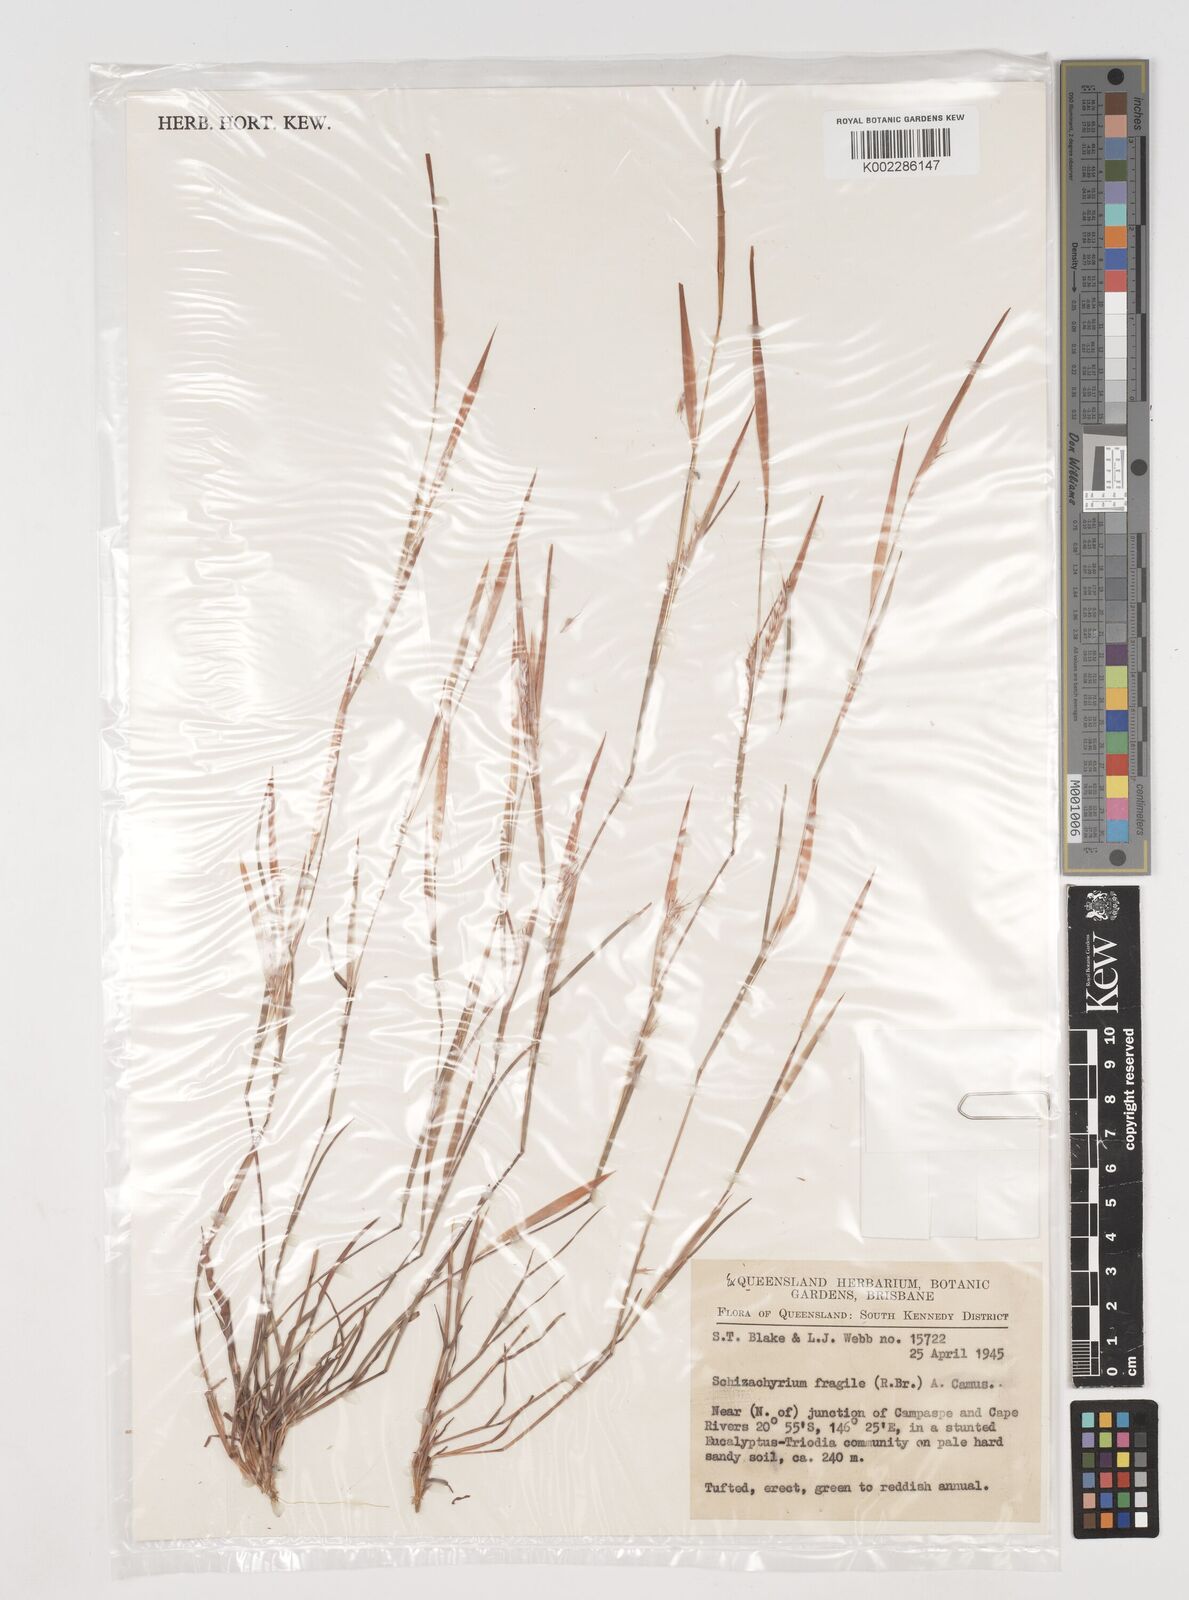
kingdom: Plantae
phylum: Tracheophyta
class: Liliopsida
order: Poales
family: Poaceae
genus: Schizachyrium
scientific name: Schizachyrium fragile
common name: Red spathe grass
